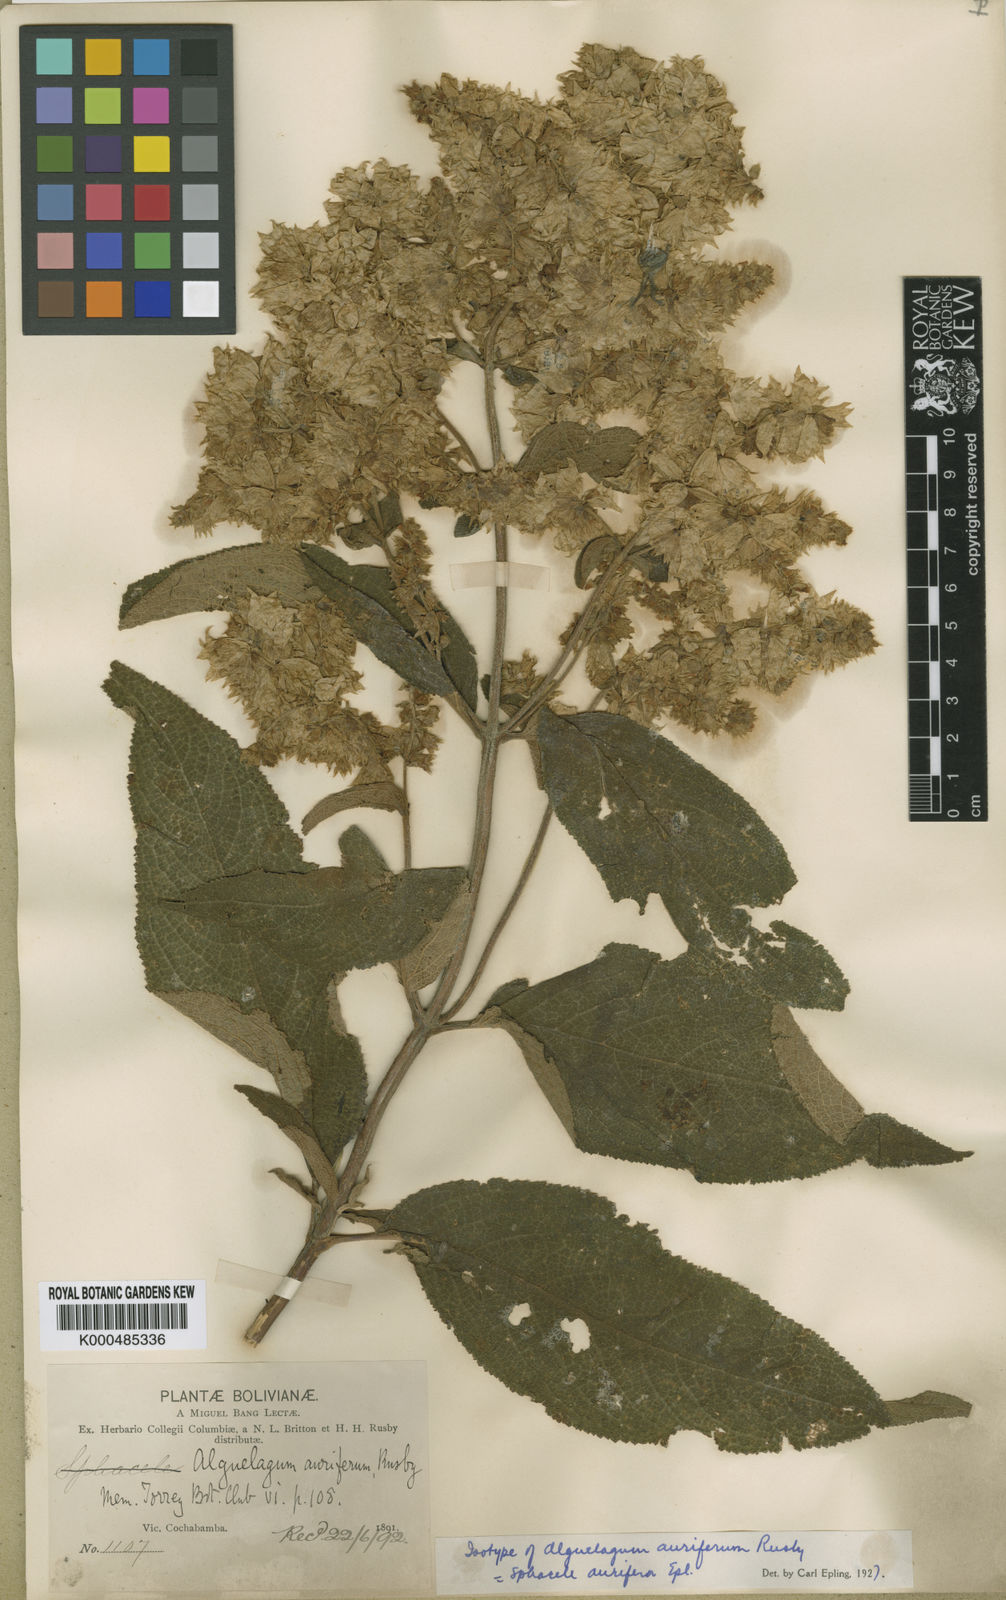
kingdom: Plantae
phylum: Tracheophyta
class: Magnoliopsida
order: Lamiales
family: Lamiaceae
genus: Lepechinia
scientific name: Lepechinia graveolens
